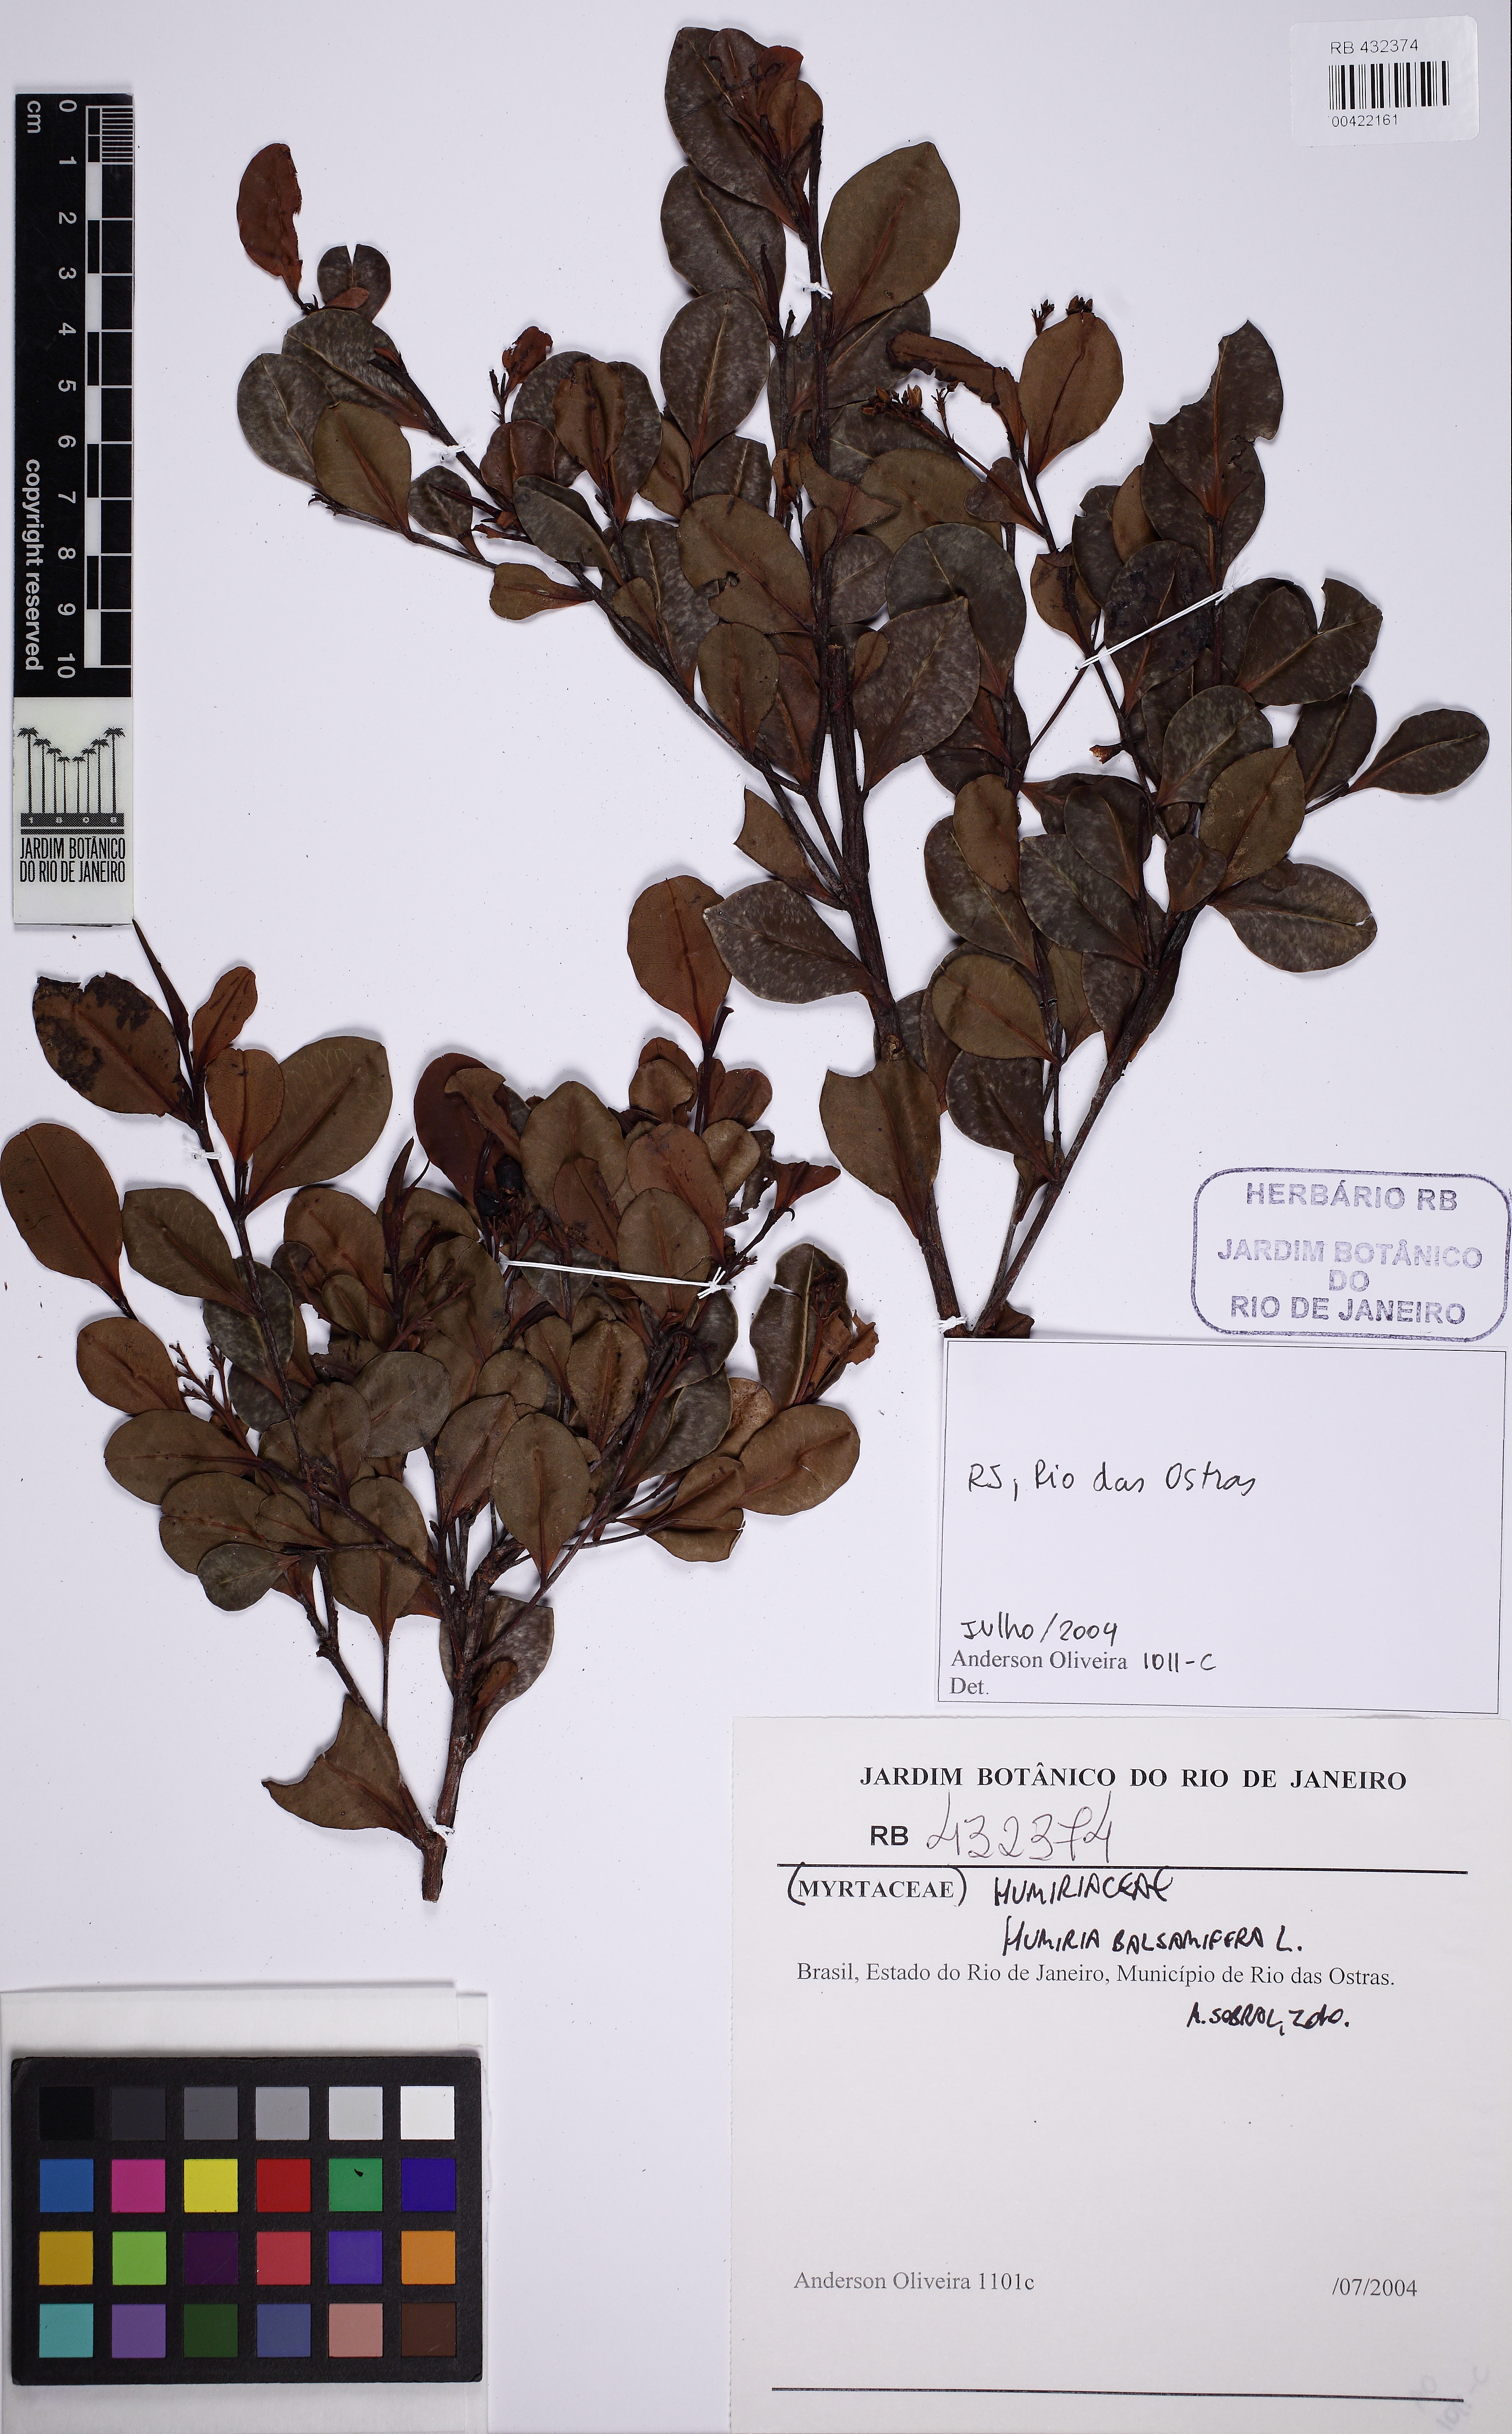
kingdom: Plantae
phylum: Tracheophyta
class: Magnoliopsida
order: Malpighiales
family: Humiriaceae
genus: Humiria
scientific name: Humiria balsamifera
